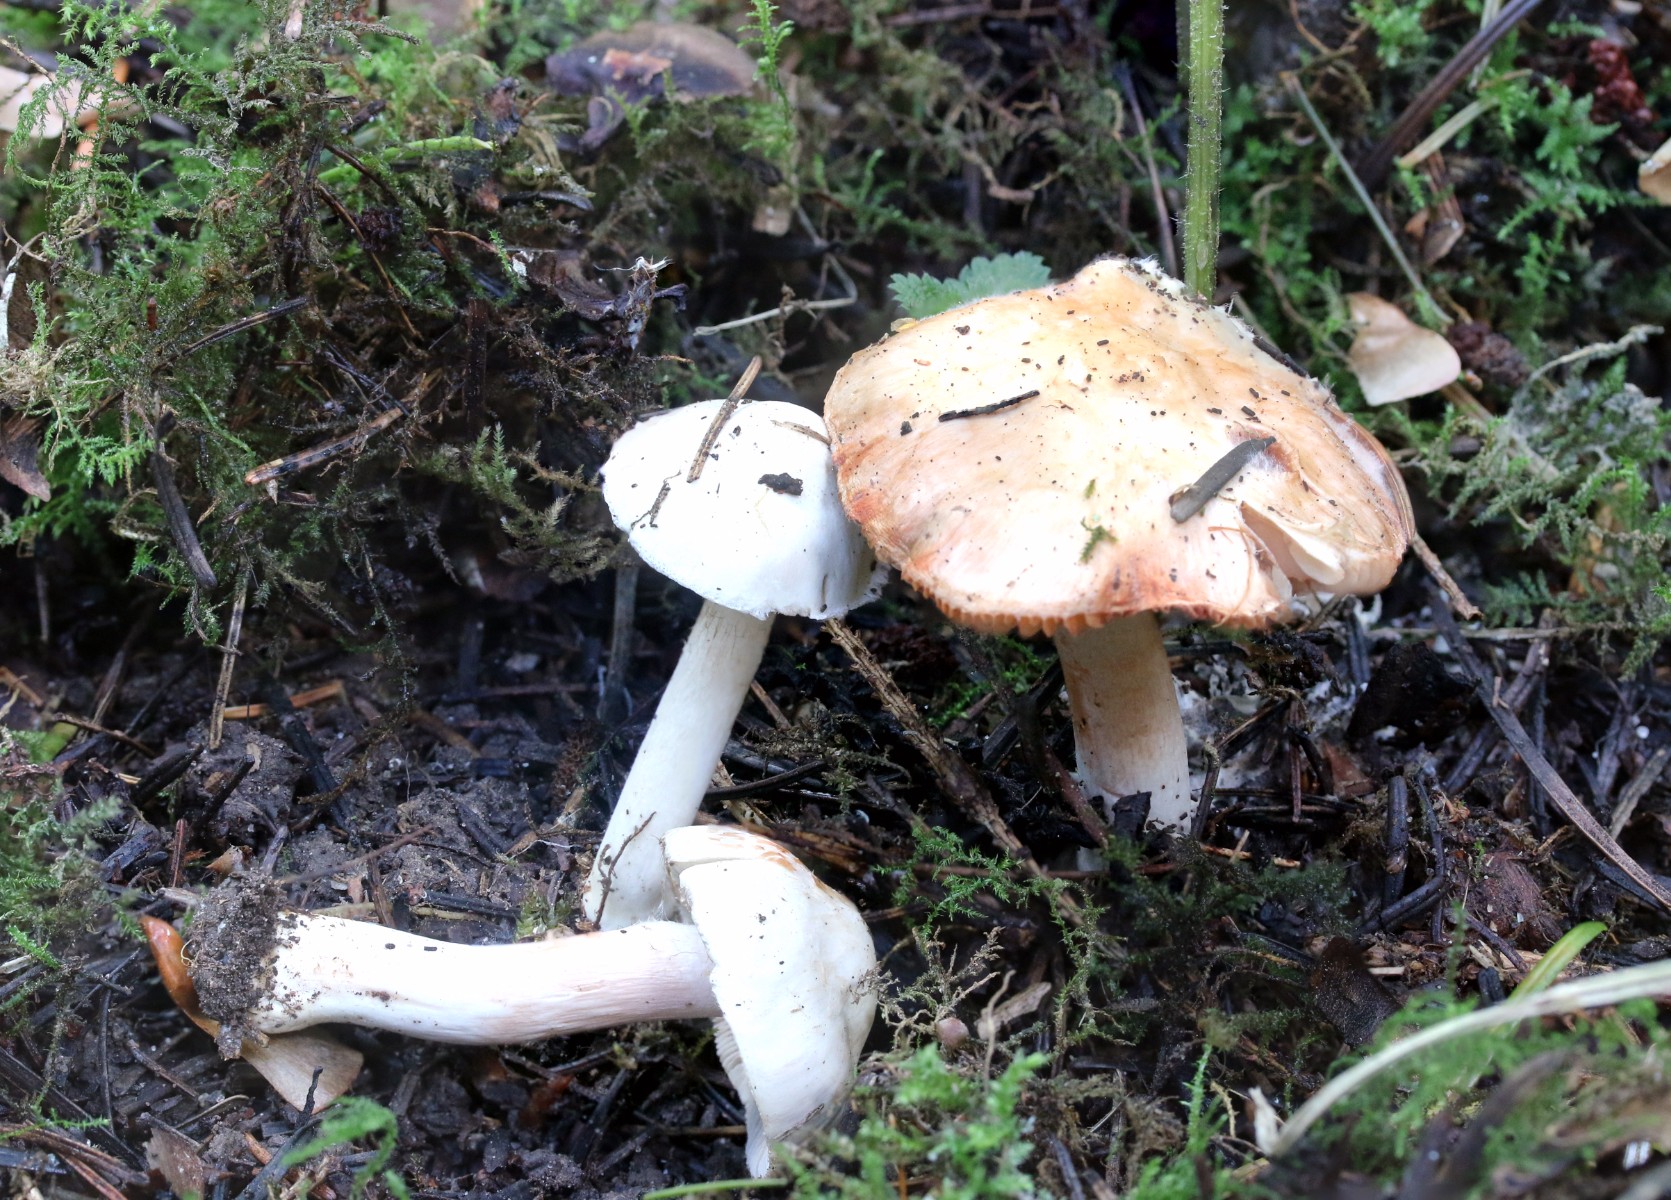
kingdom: Fungi
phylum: Basidiomycota
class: Agaricomycetes
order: Agaricales
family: Inocybaceae
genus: Inocybe
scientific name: Inocybe
